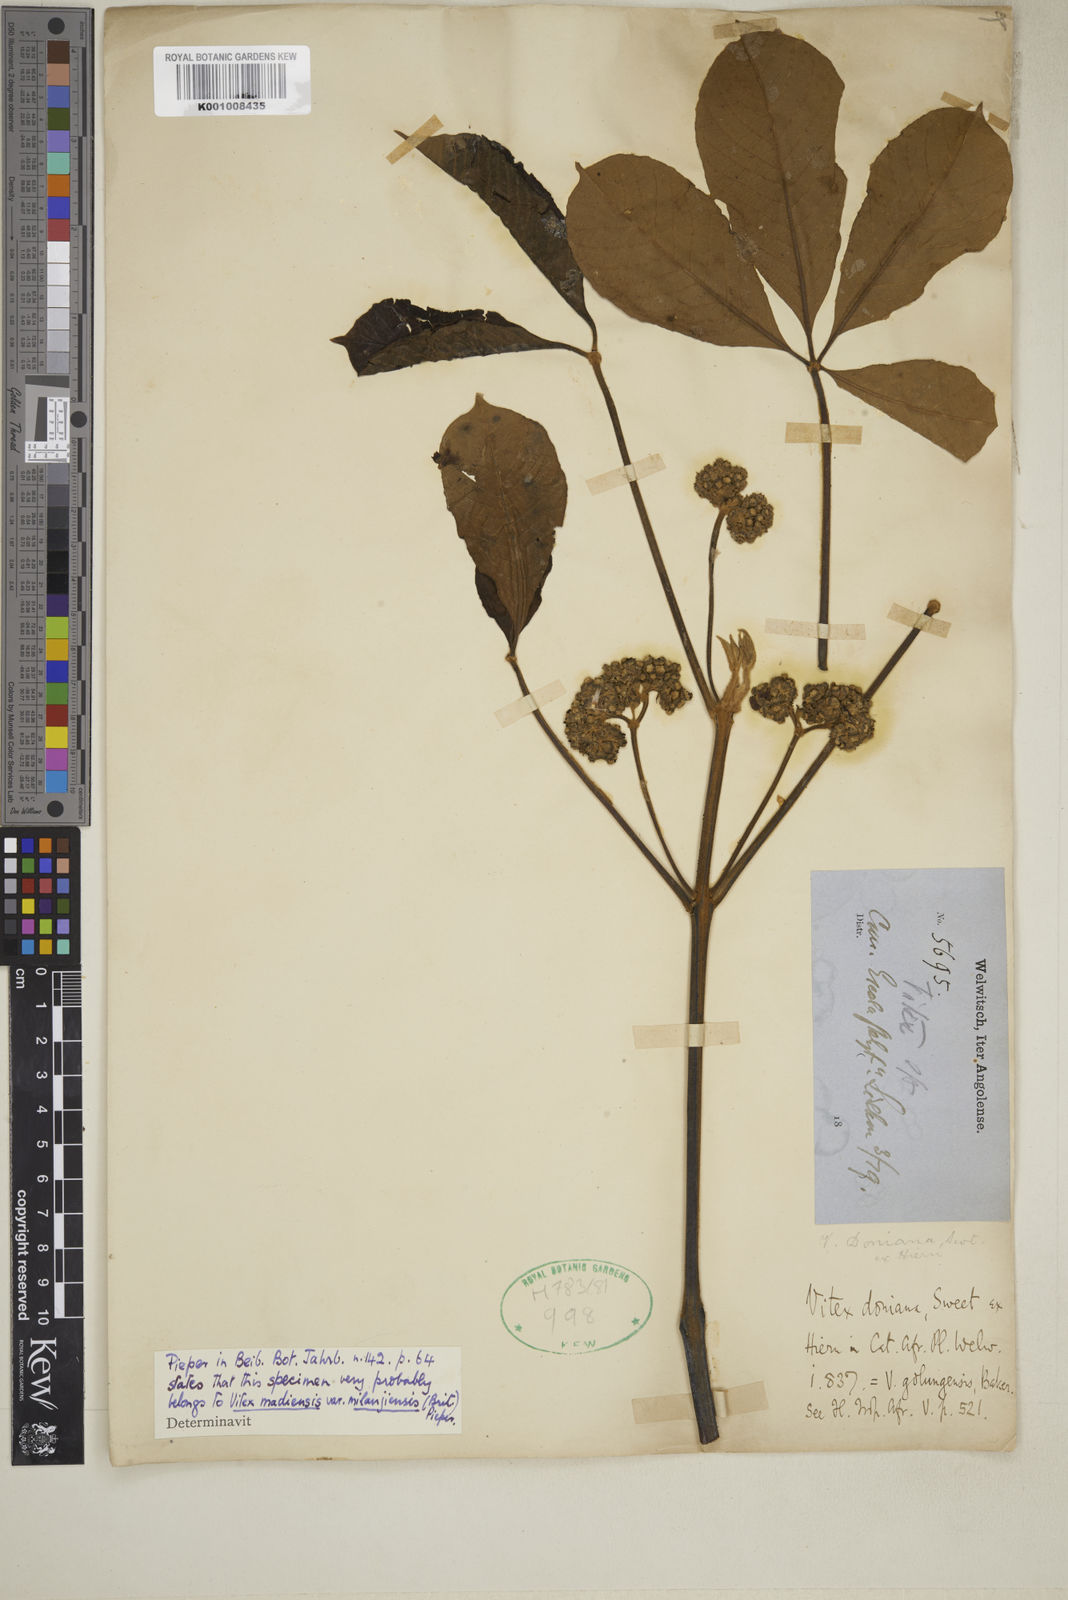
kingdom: Plantae
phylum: Tracheophyta
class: Magnoliopsida
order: Lamiales
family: Lamiaceae
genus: Vitex
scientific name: Vitex doniana
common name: Black plum
